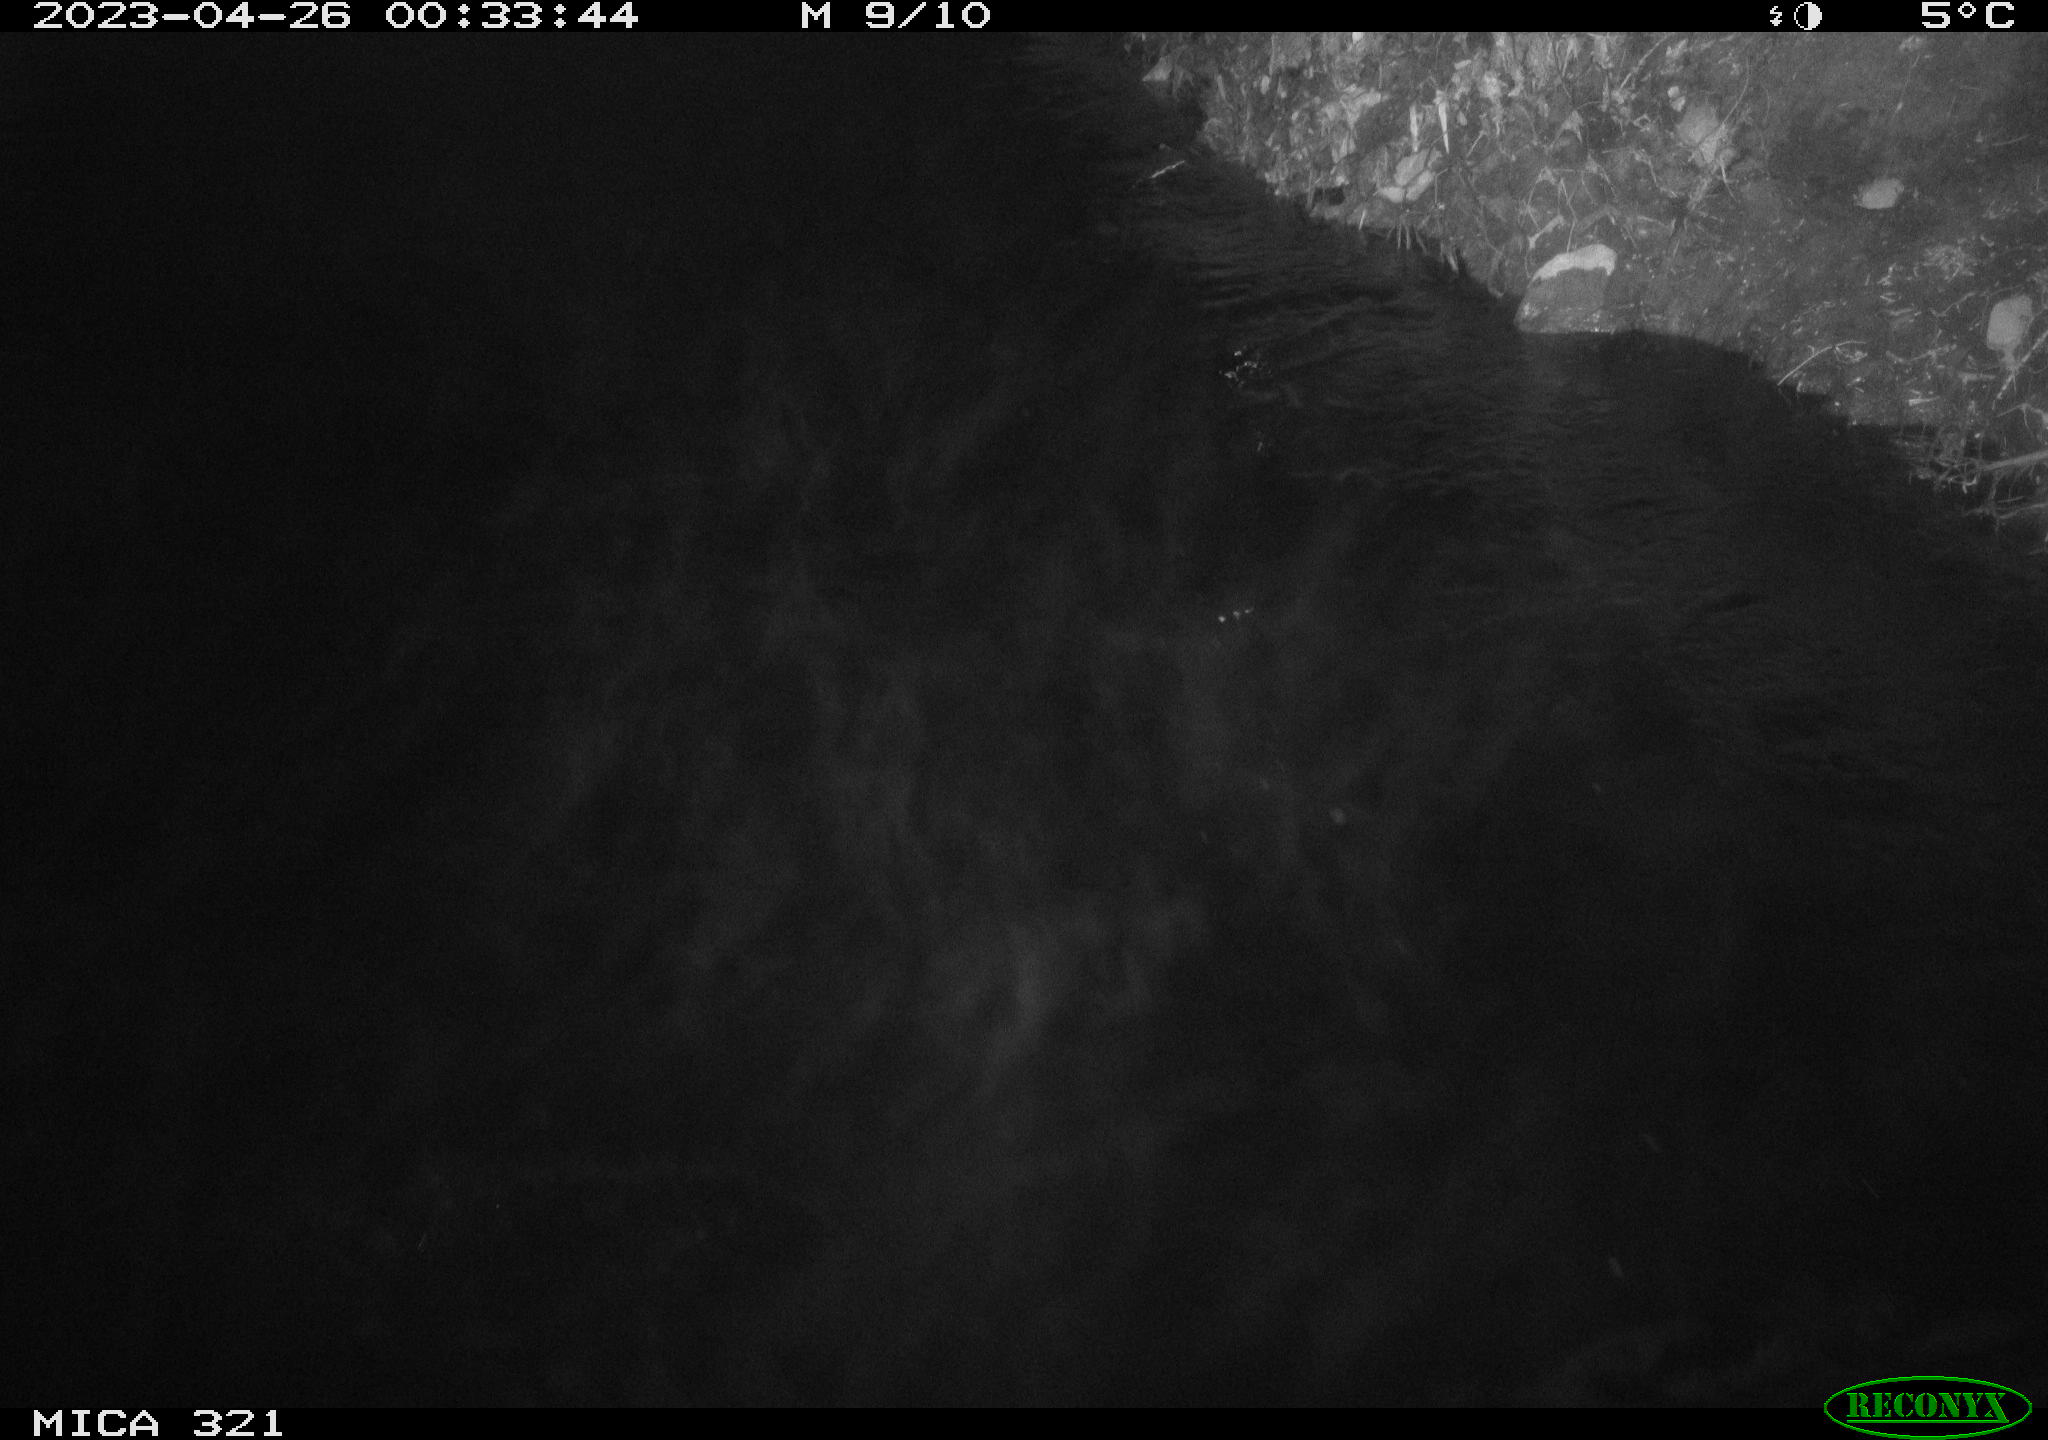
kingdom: Animalia
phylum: Chordata
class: Aves
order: Anseriformes
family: Anatidae
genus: Anas
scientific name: Anas
